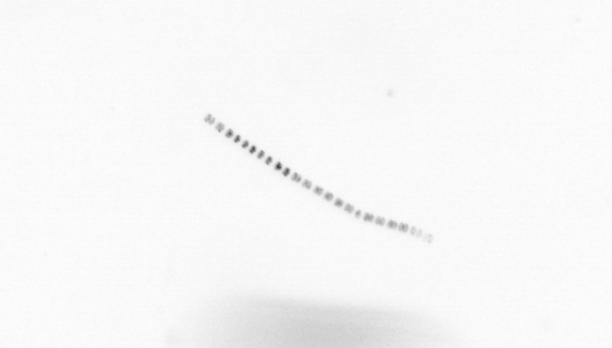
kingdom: Chromista
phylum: Ochrophyta
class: Bacillariophyceae
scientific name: Bacillariophyceae
